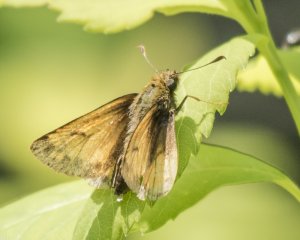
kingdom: Animalia
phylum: Arthropoda
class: Insecta
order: Lepidoptera
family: Hesperiidae
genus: Lon
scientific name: Lon hobomok
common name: Hobomok Skipper
